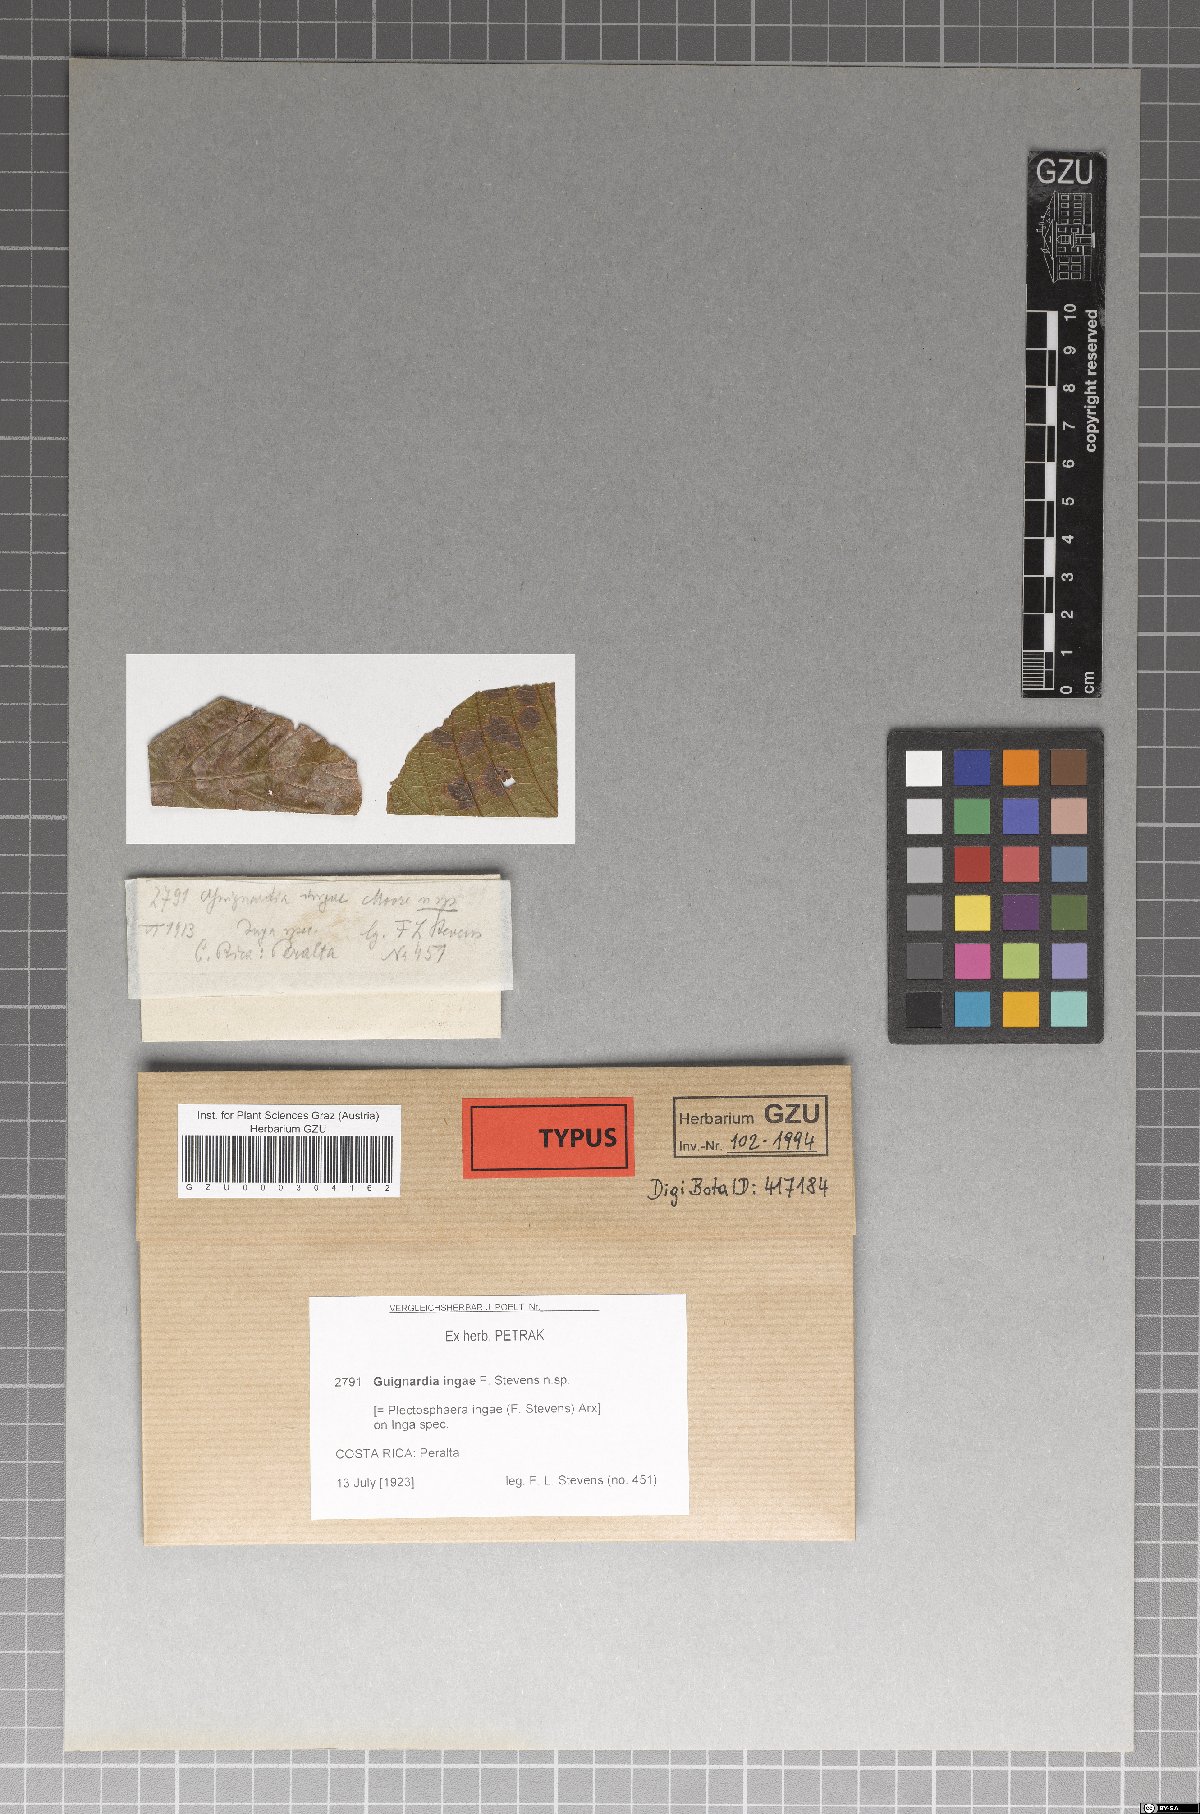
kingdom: Fungi
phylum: Ascomycota
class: Sordariomycetes
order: Xylariales
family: Xylariaceae
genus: Plectosphaera
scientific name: Plectosphaera ingae
